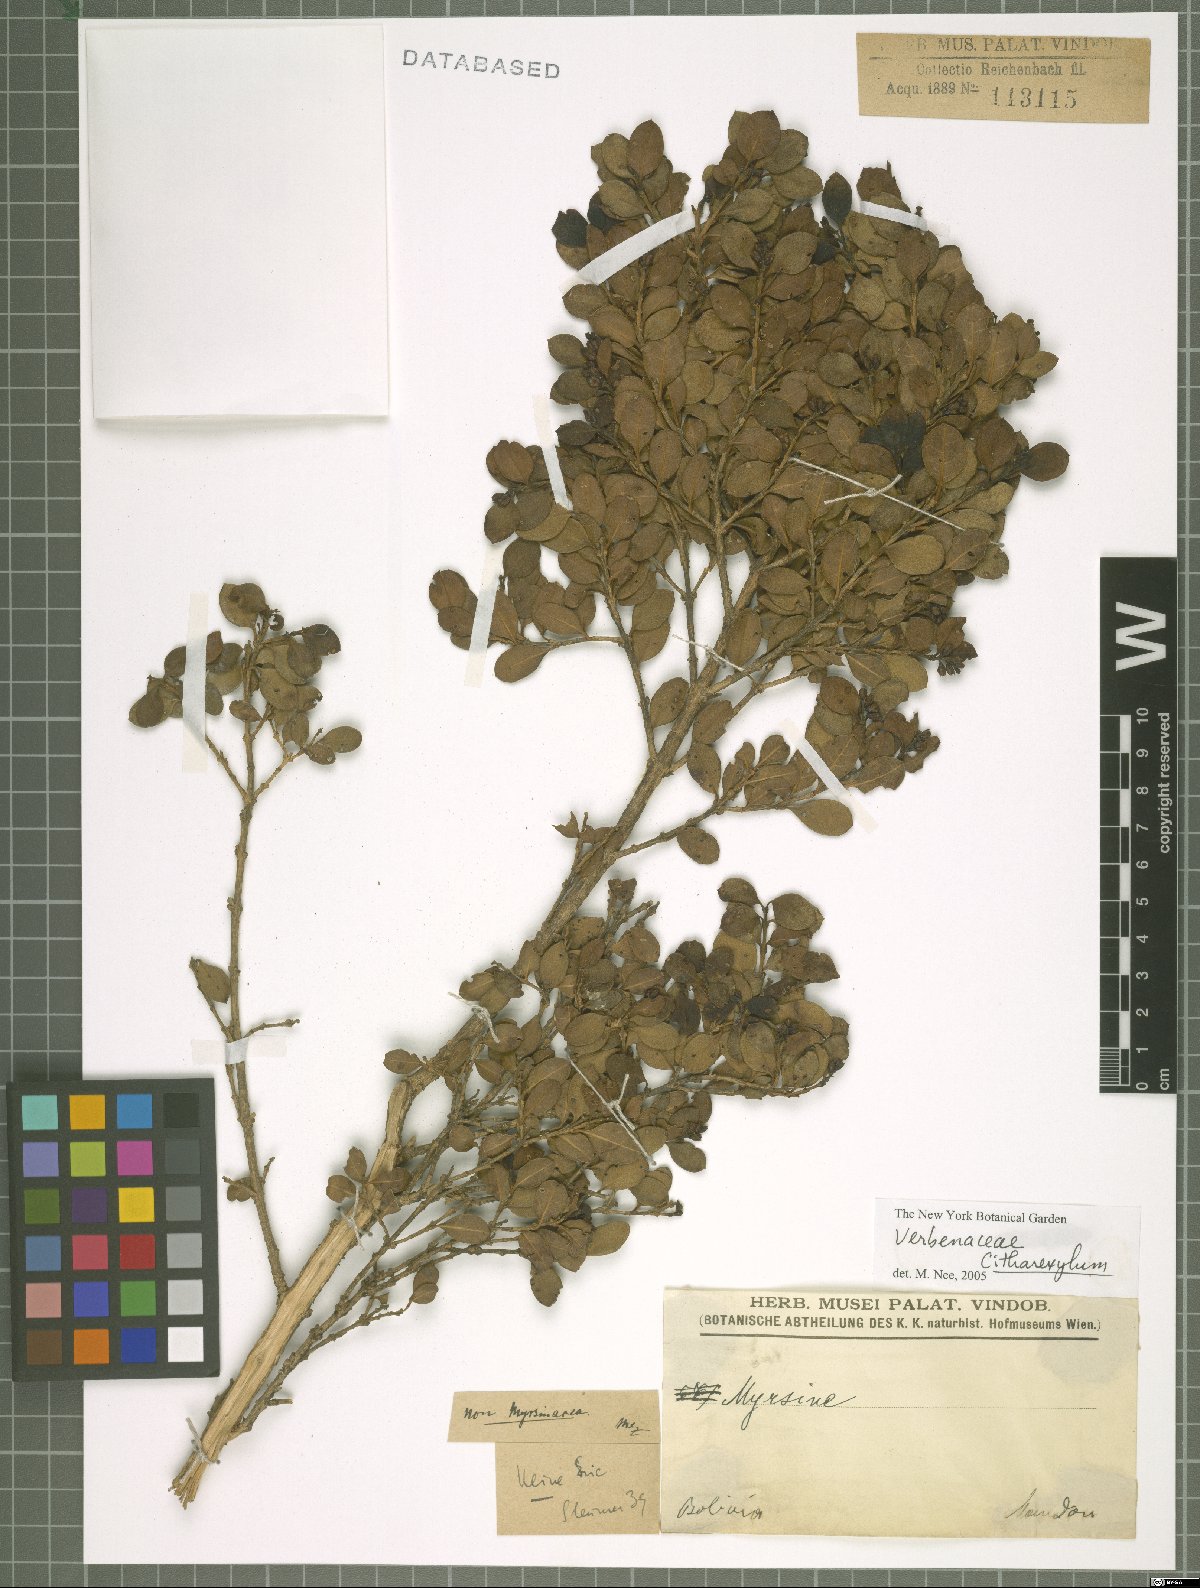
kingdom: Plantae
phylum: Tracheophyta
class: Magnoliopsida
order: Lamiales
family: Verbenaceae
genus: Citharexylum
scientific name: Citharexylum
